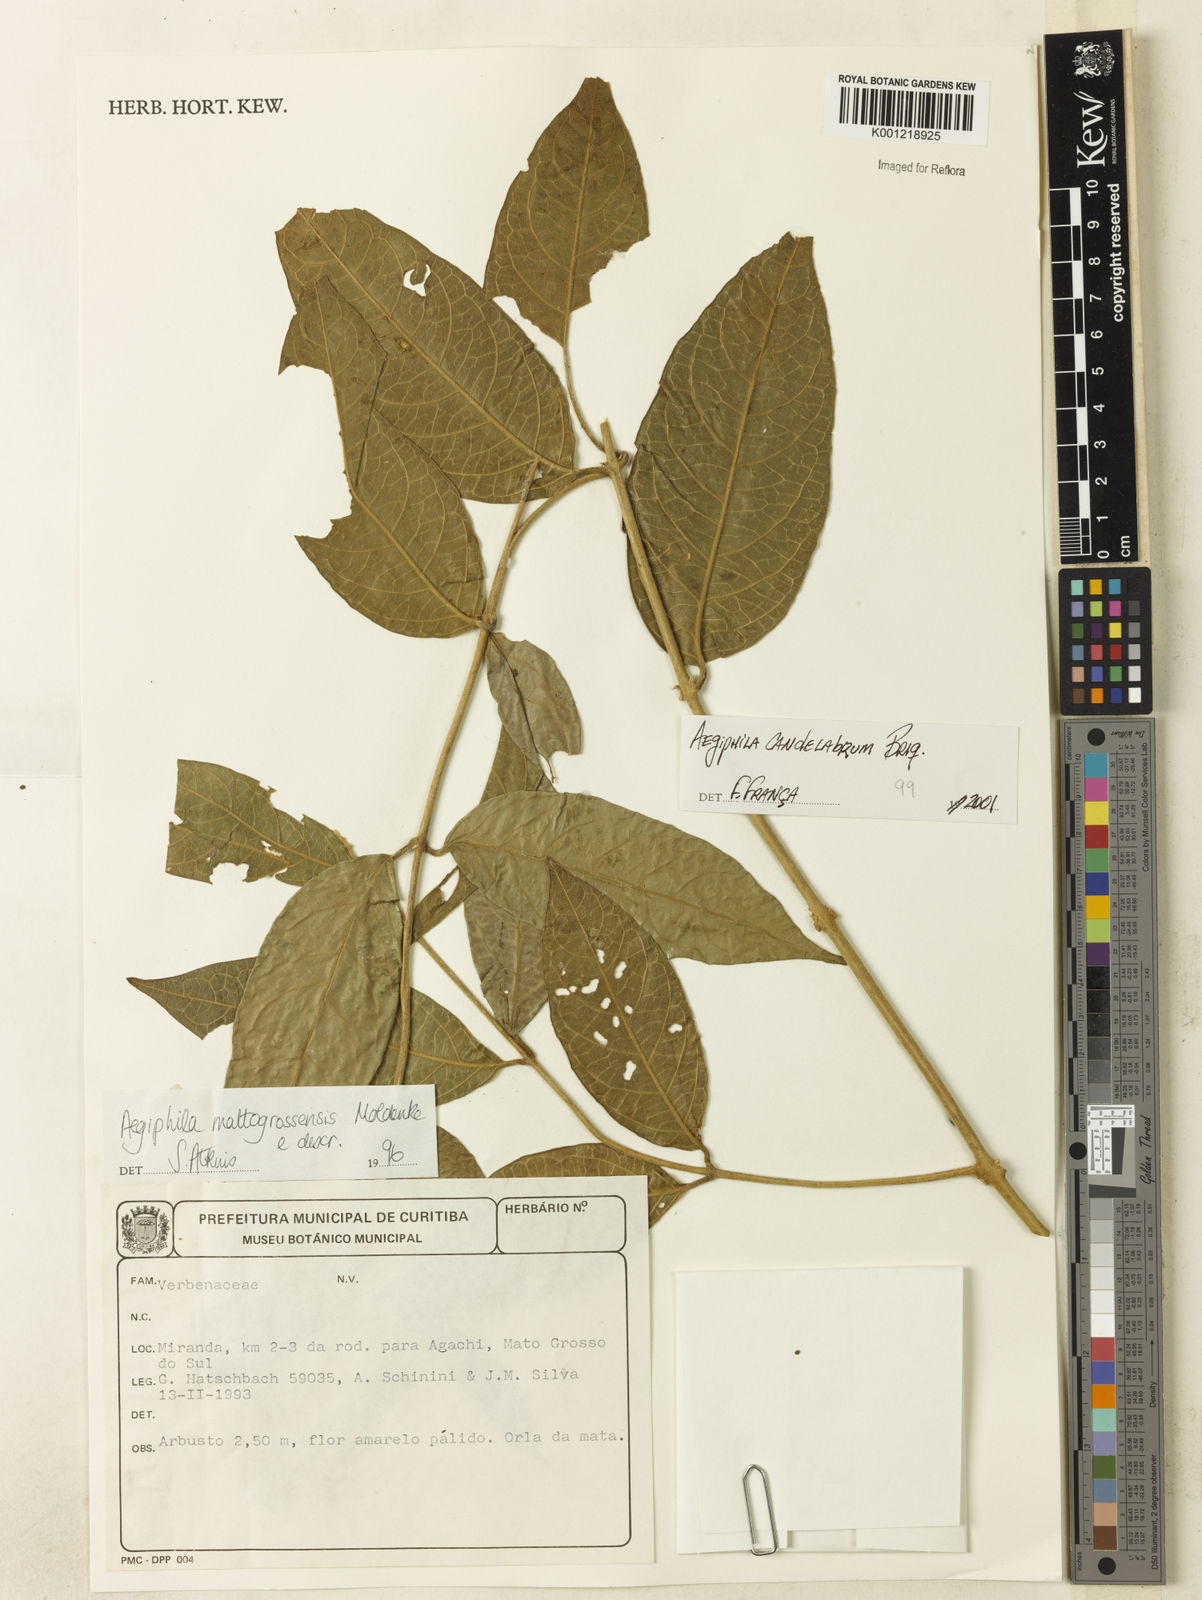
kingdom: Plantae
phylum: Tracheophyta
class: Magnoliopsida
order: Lamiales
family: Lamiaceae
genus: Aegiphila
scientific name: Aegiphila vitelliniflora
